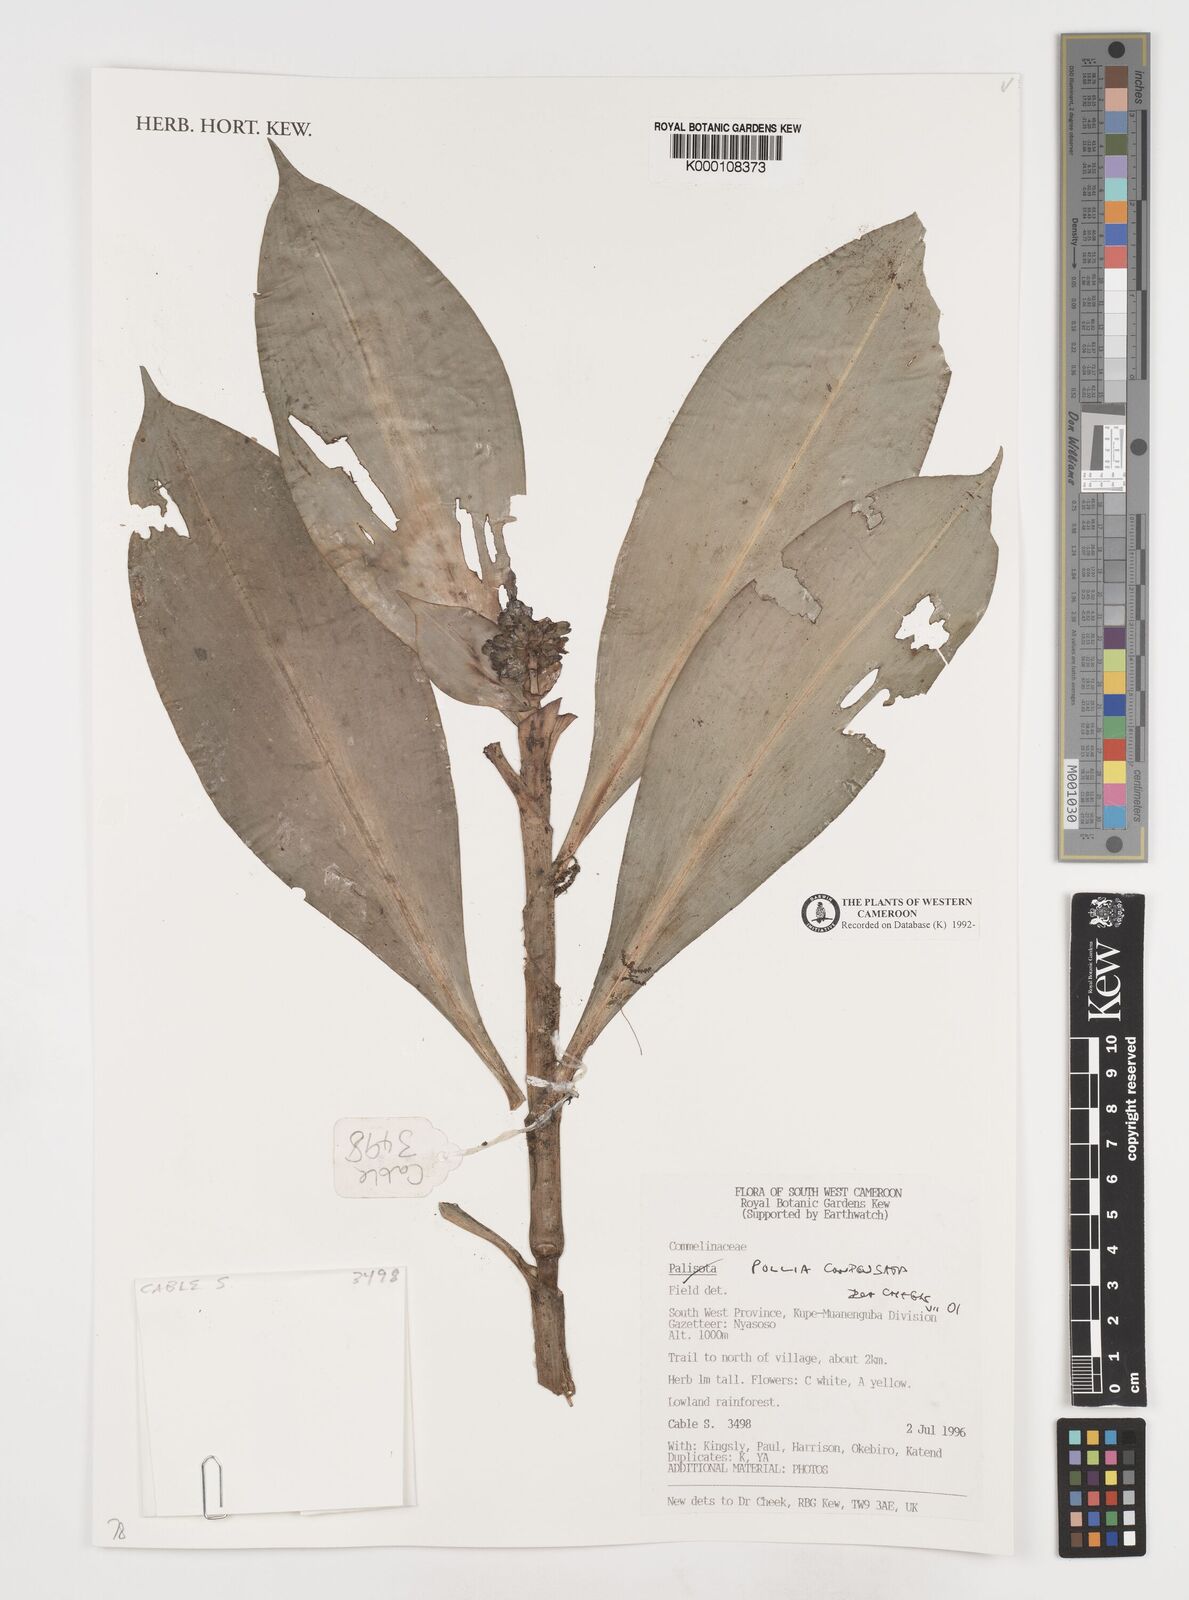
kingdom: Plantae
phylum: Tracheophyta
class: Liliopsida
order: Commelinales
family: Commelinaceae
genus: Pollia
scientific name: Pollia condensata
